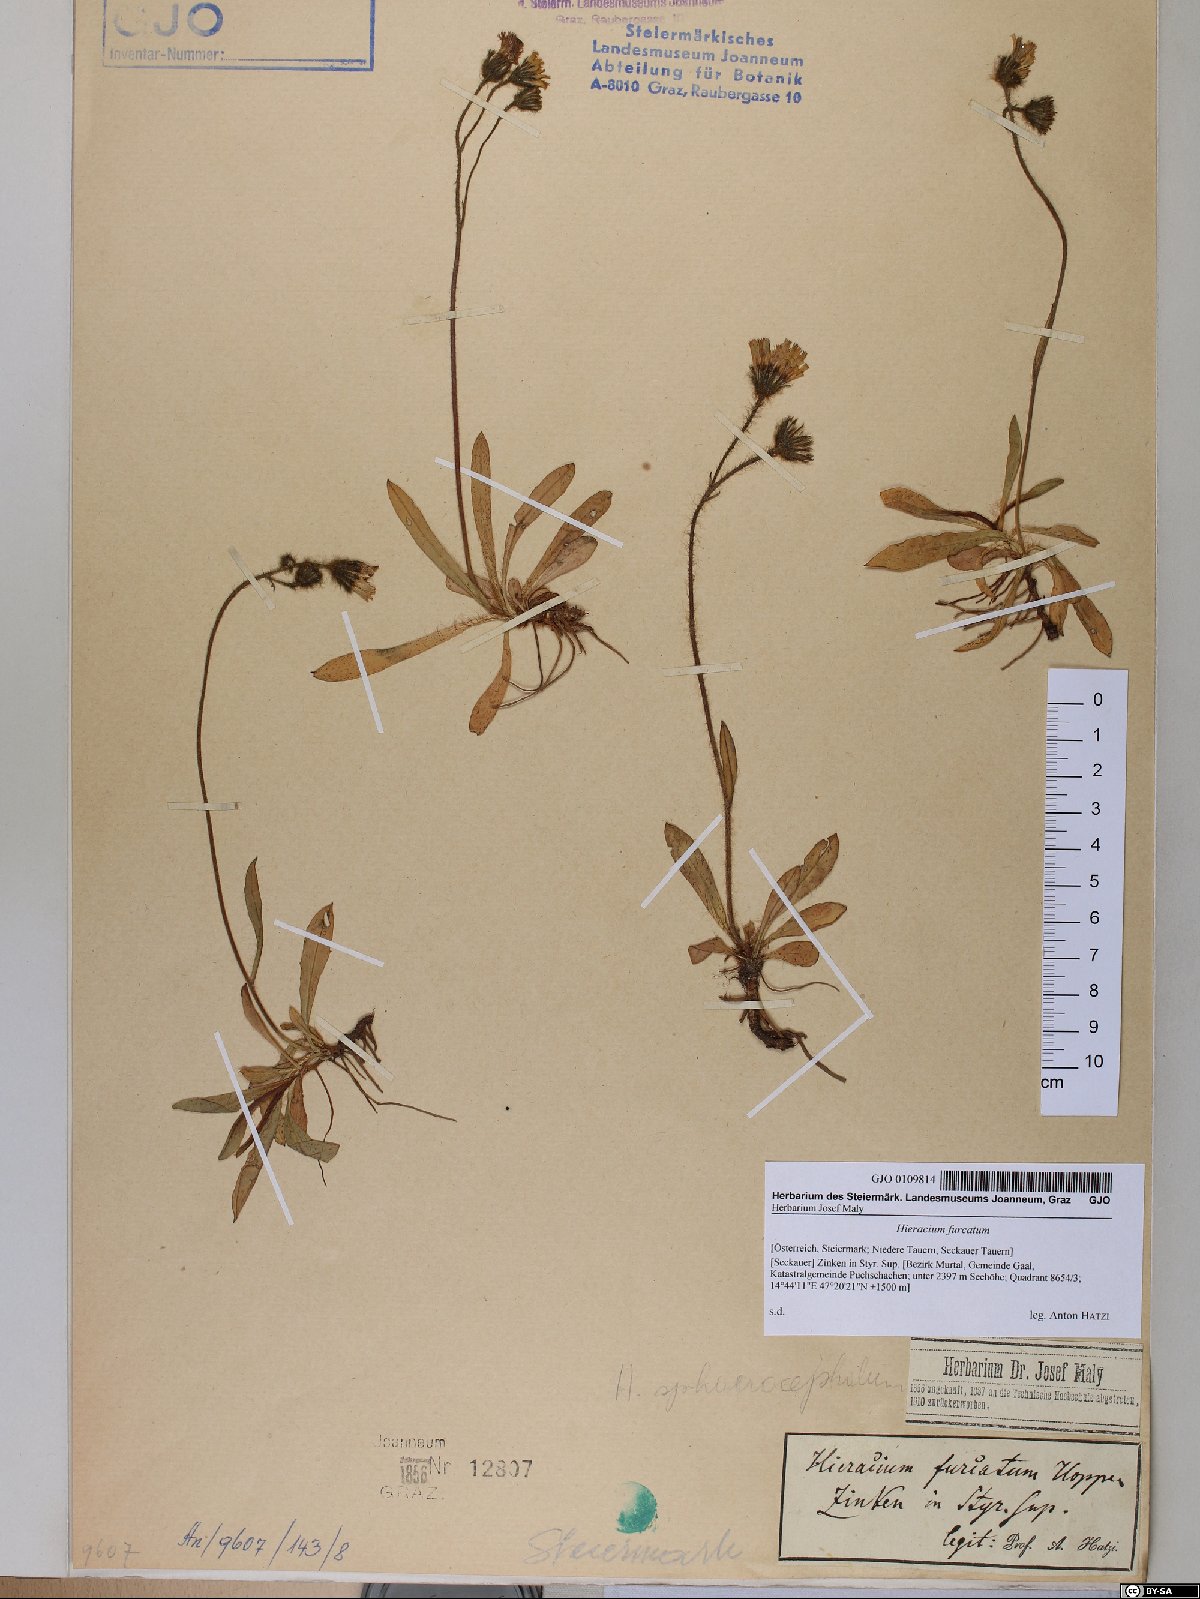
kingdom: Plantae
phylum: Tracheophyta
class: Magnoliopsida
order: Asterales
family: Asteraceae
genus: Pilosella
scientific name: Pilosella sphaerocephala
